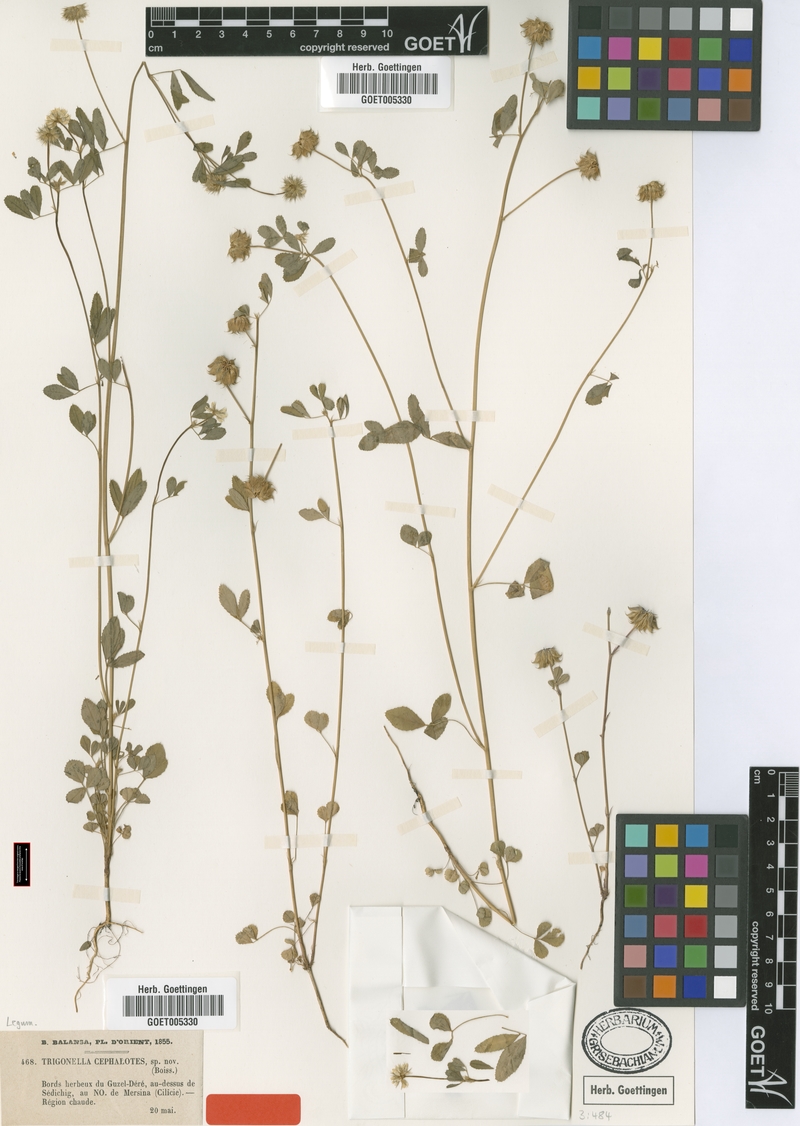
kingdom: Plantae
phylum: Tracheophyta
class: Magnoliopsida
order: Fabales
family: Fabaceae
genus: Trigonella
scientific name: Trigonella cephalotes
